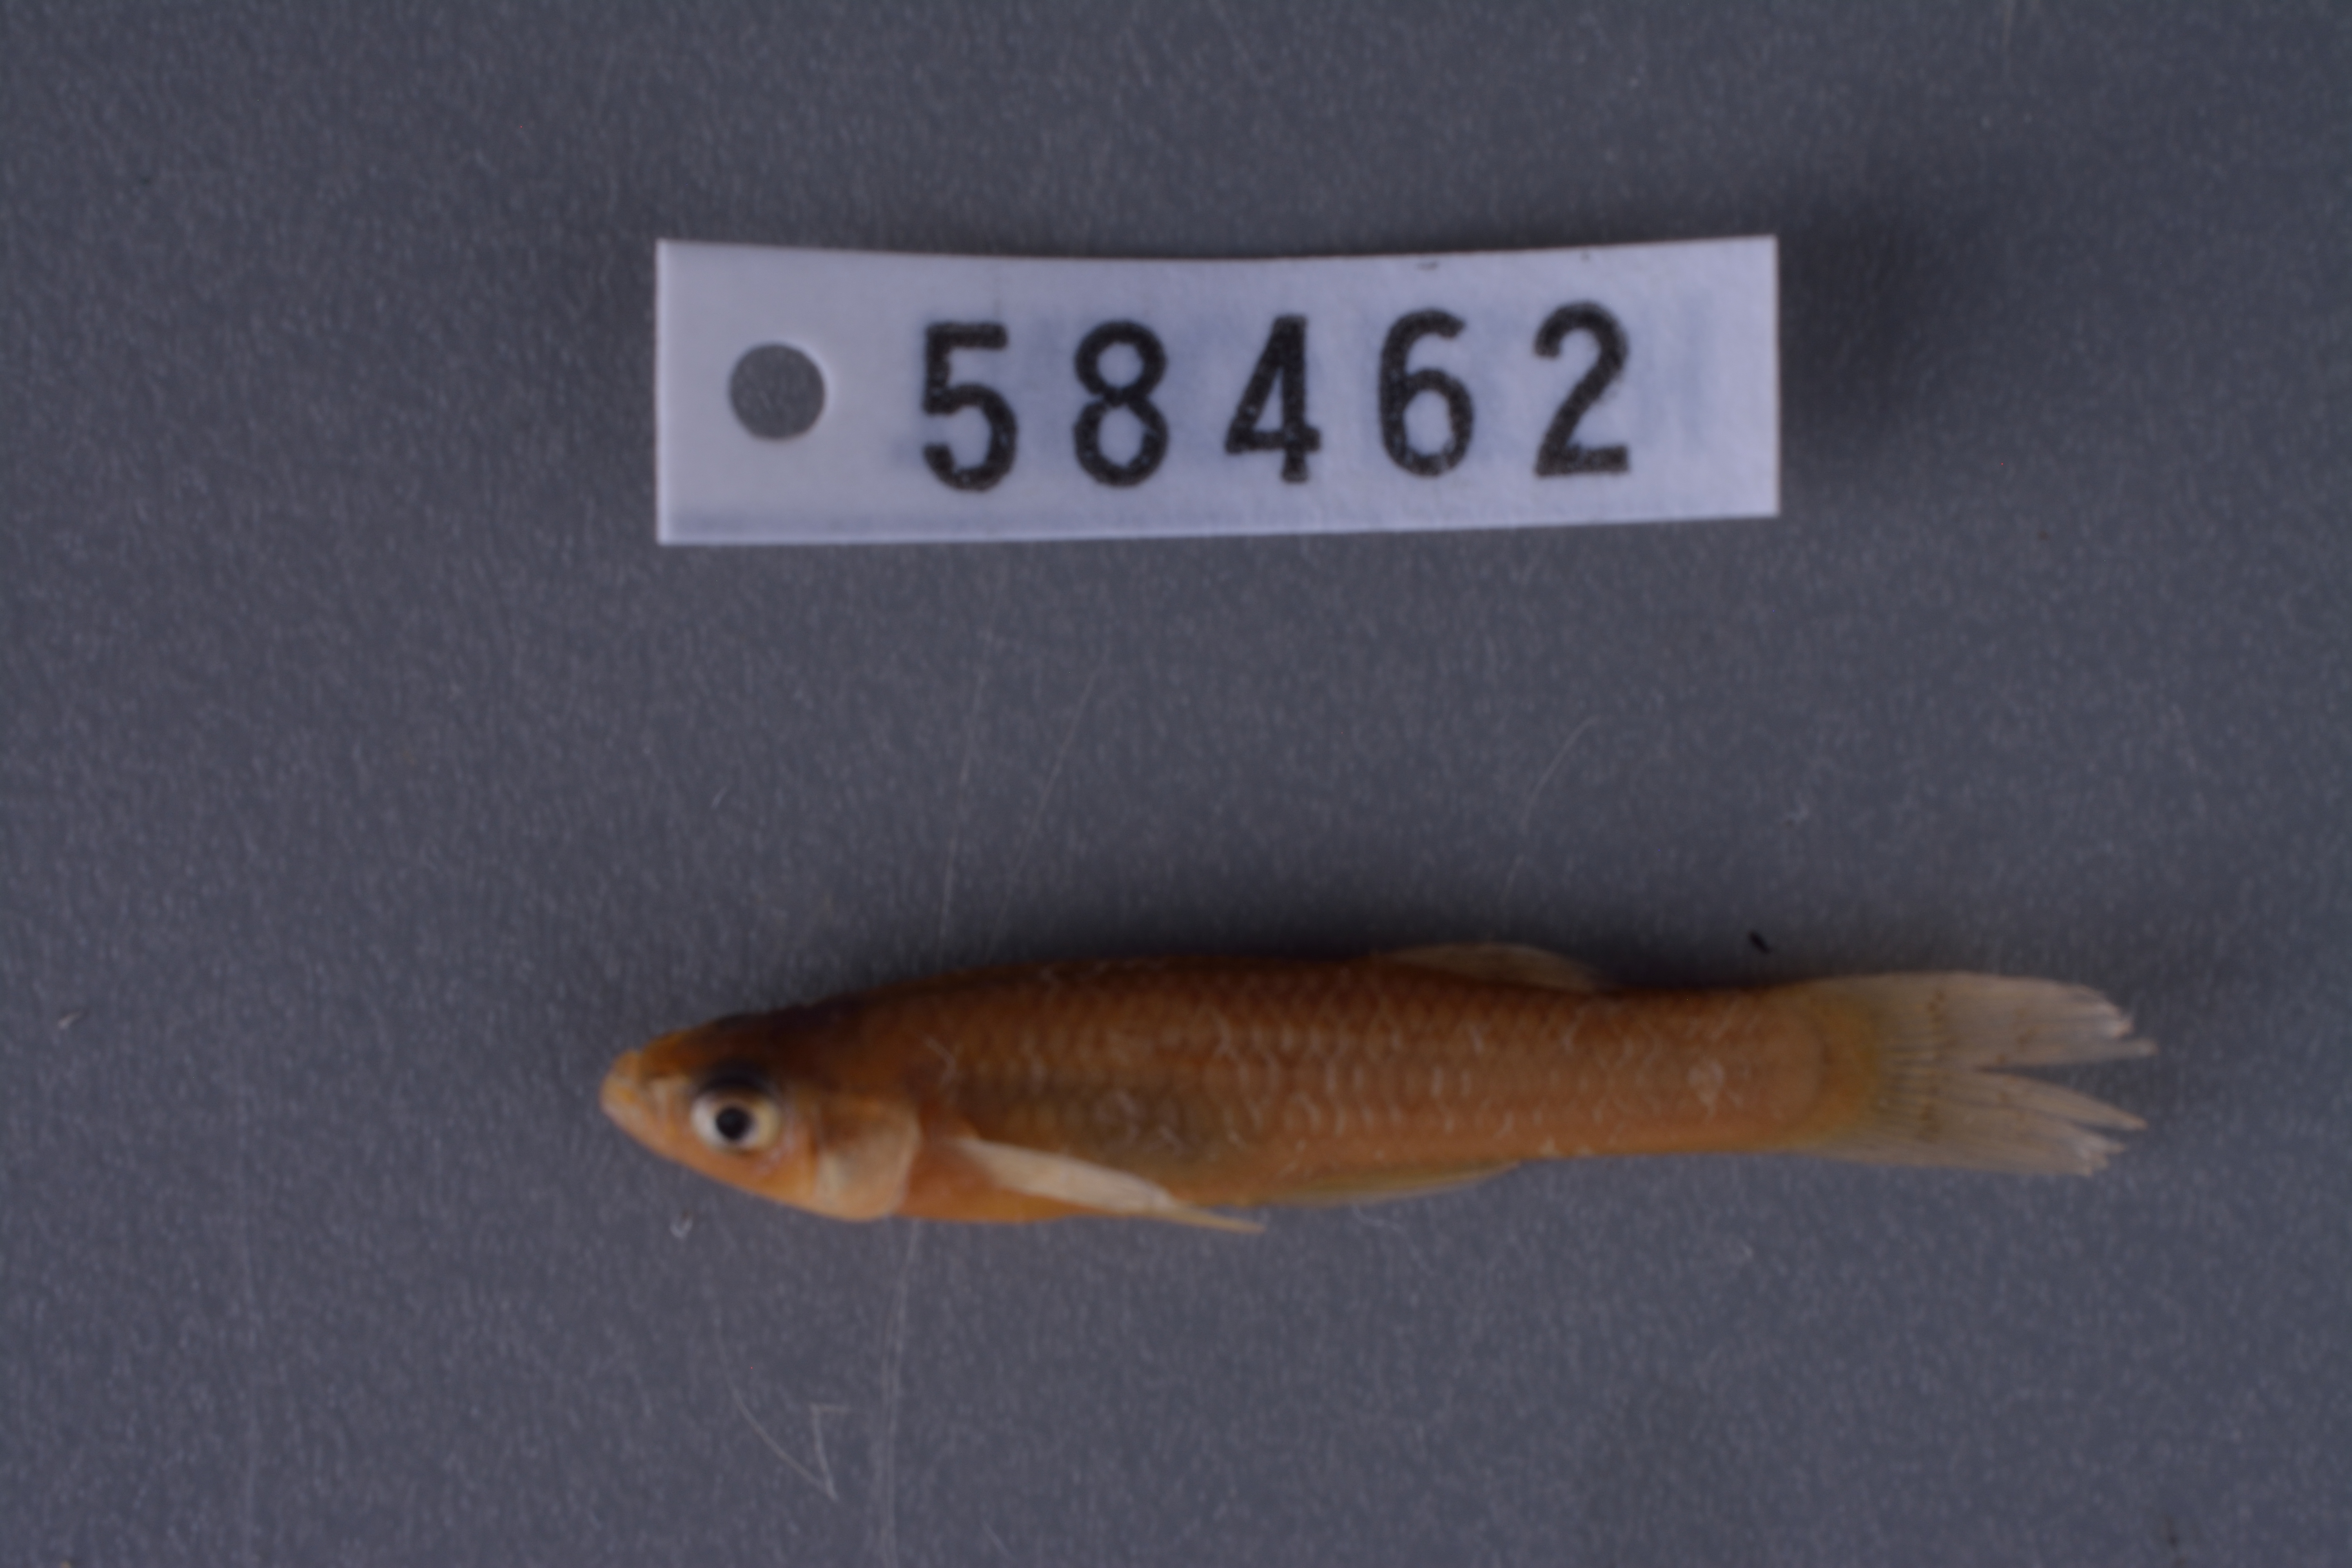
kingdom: Animalia
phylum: Chordata
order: Cyprinodontiformes
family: Poeciliidae
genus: Gambusia
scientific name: Gambusia affinis
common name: Mosquitofish
